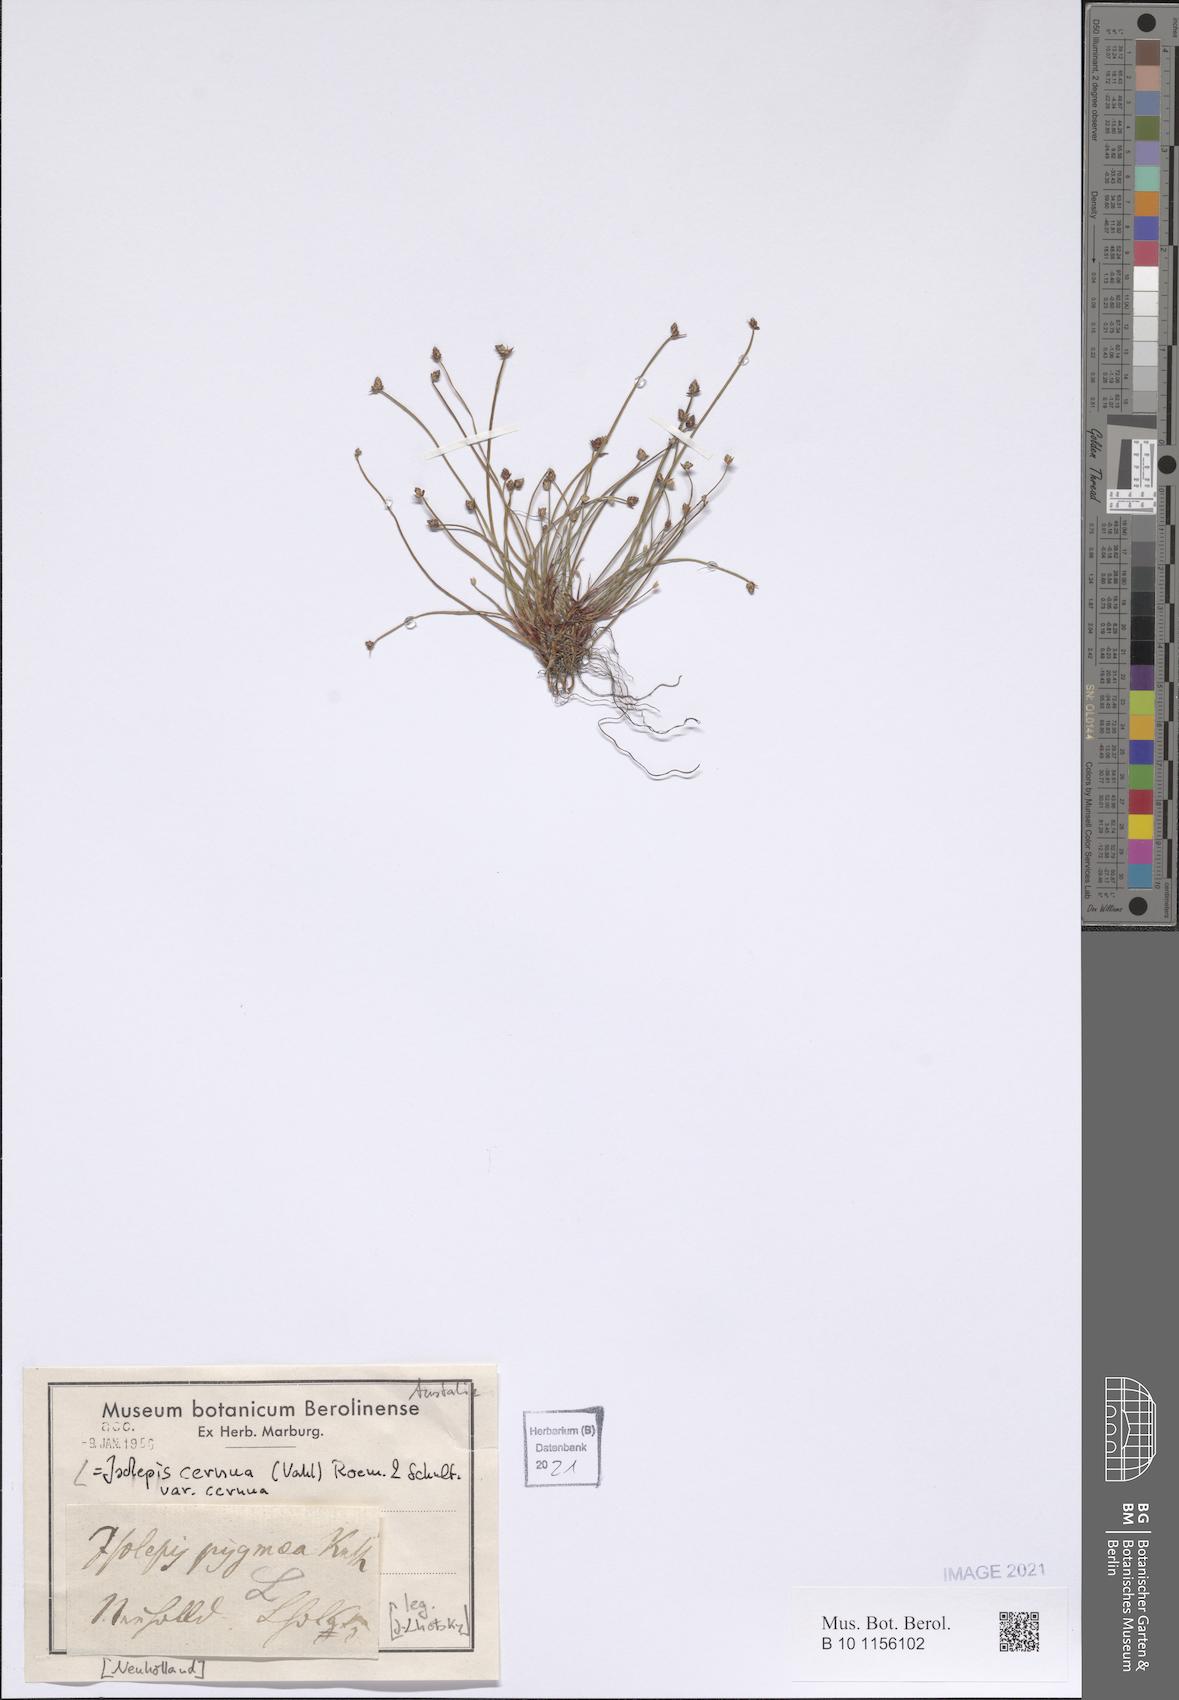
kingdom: Plantae
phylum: Tracheophyta
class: Liliopsida
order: Poales
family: Cyperaceae
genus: Isolepis
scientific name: Isolepis cernua
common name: Slender club-rush
